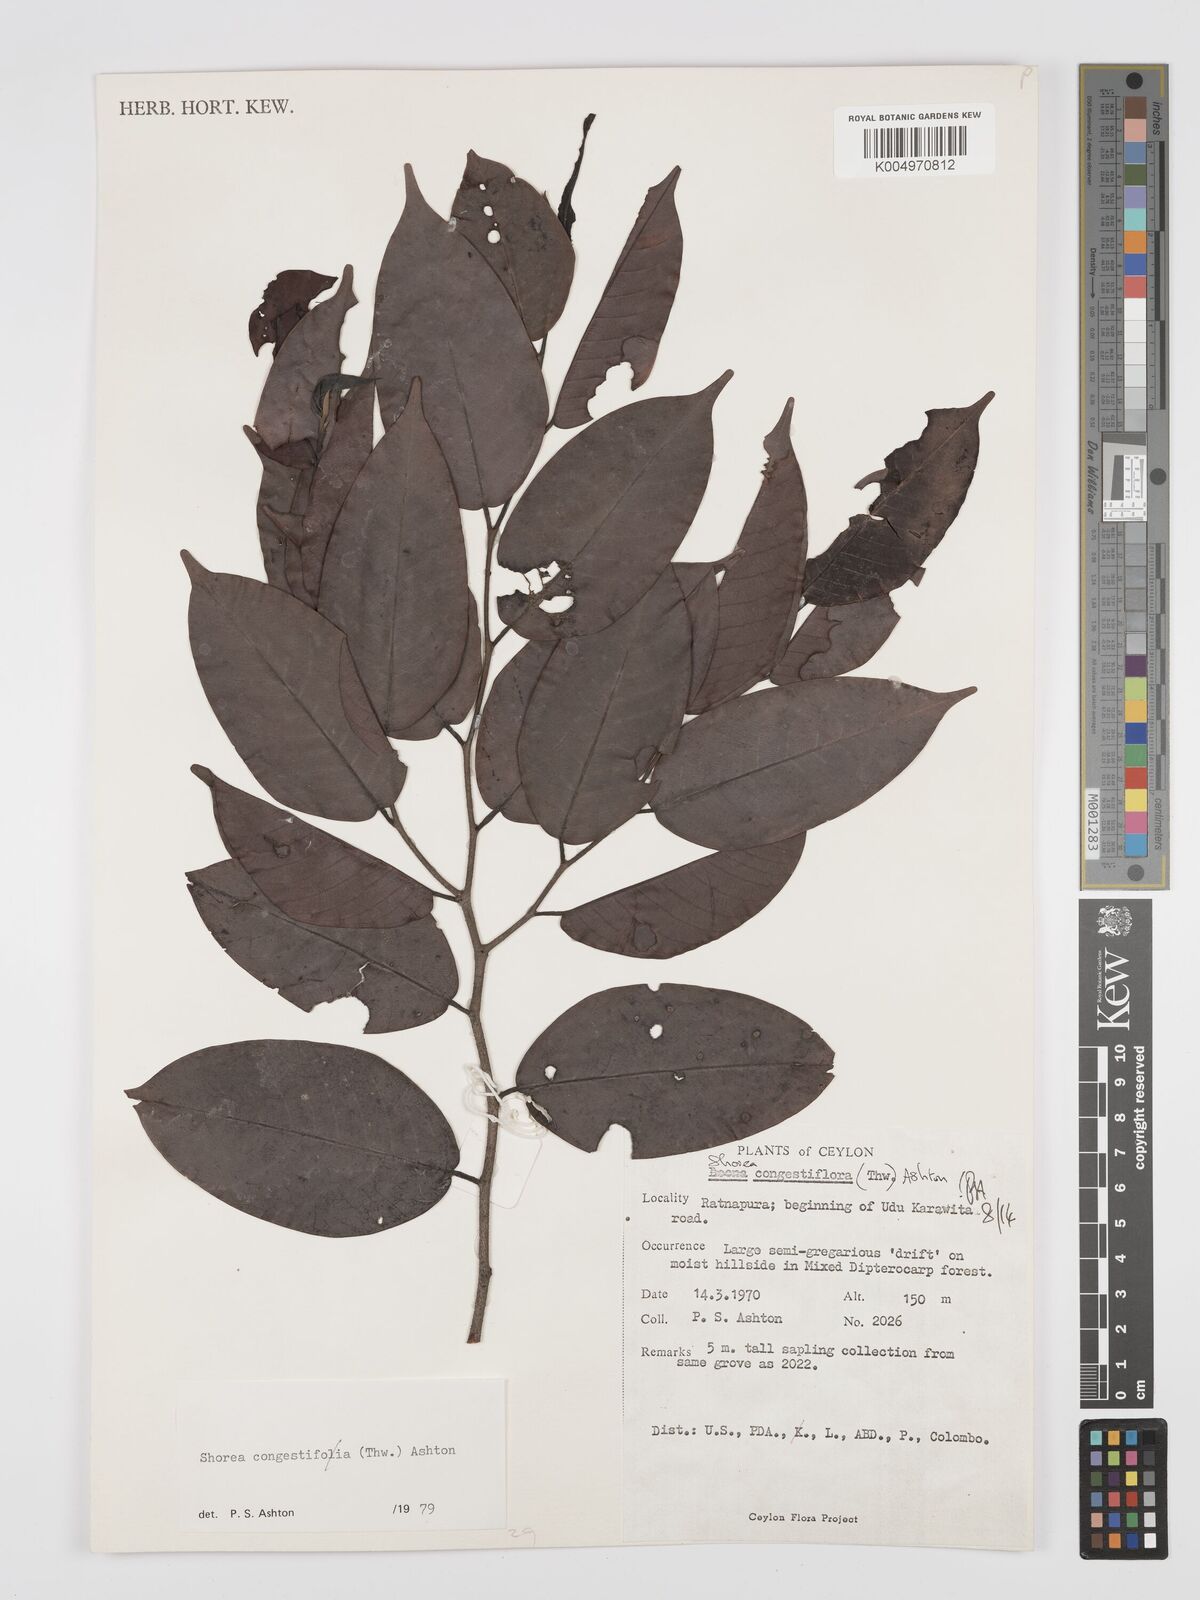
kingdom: Plantae
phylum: Tracheophyta
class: Magnoliopsida
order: Malvales
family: Dipterocarpaceae
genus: Doona
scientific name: Doona congestiflora
